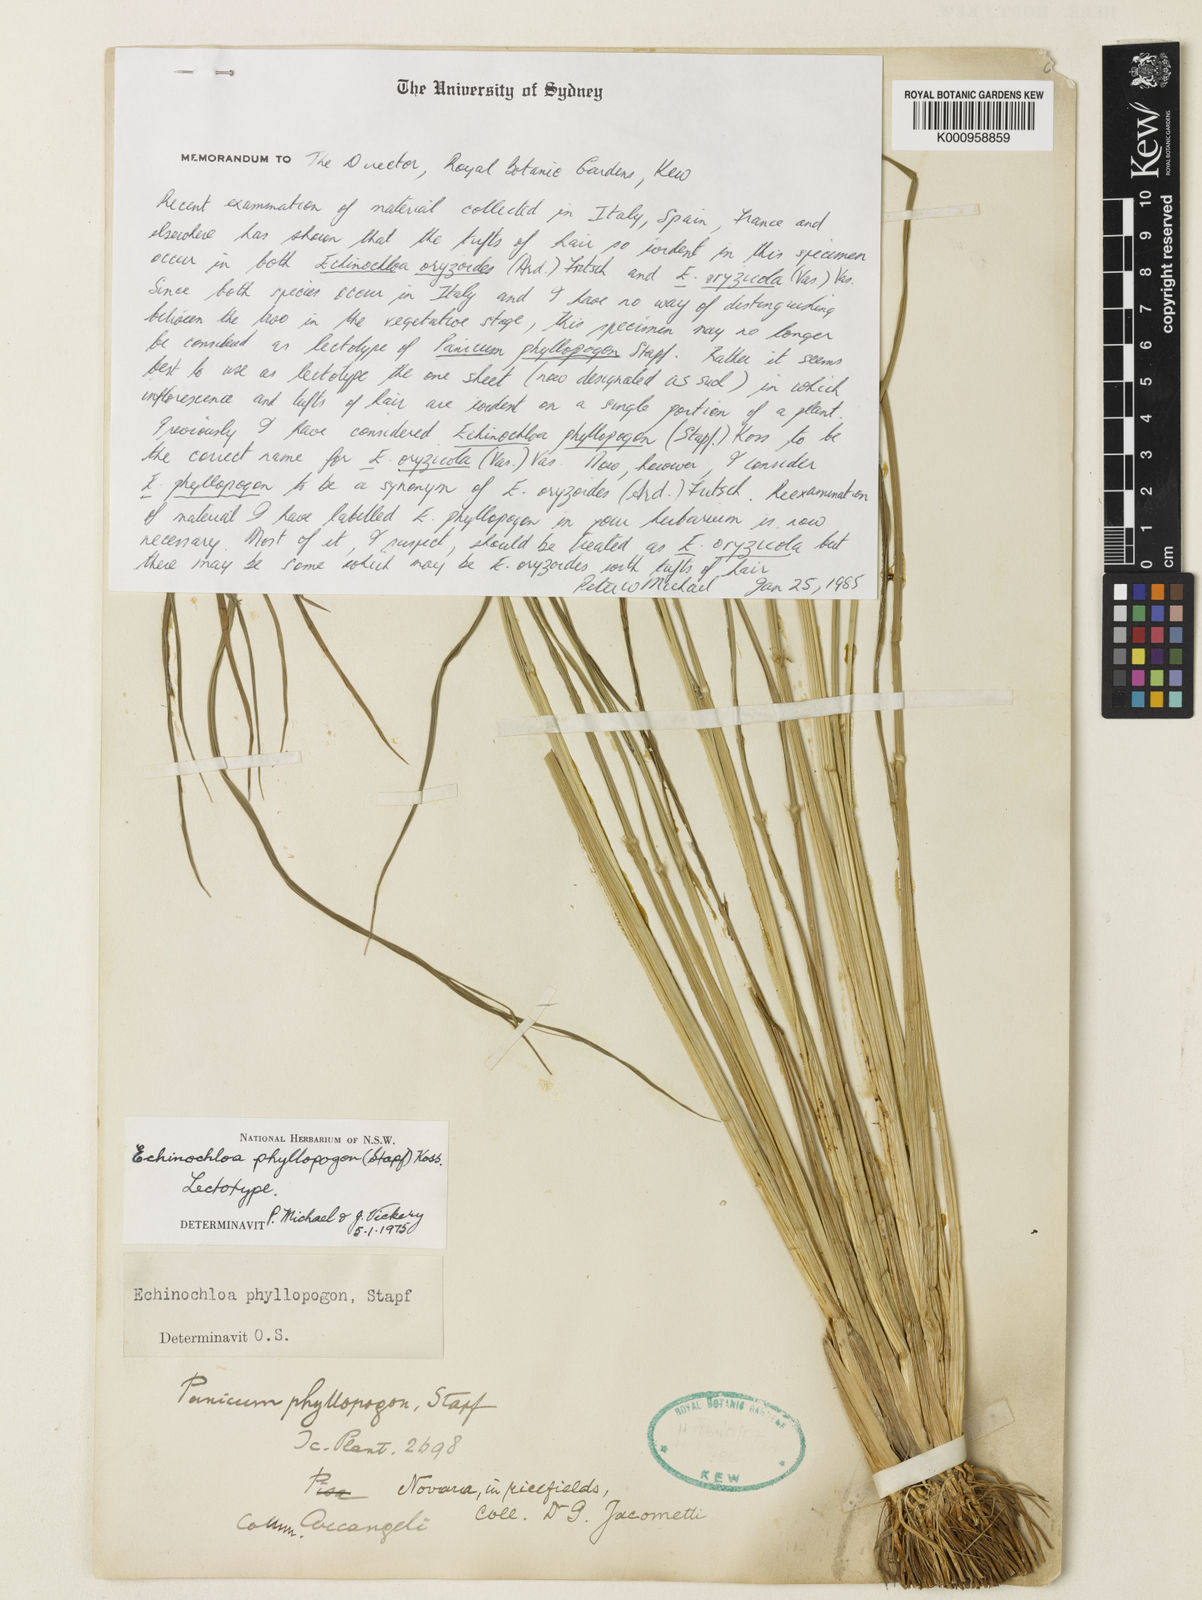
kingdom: Plantae
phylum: Tracheophyta
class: Liliopsida
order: Poales
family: Poaceae
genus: Echinochloa
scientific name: Echinochloa oryzoides
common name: Early water grass
